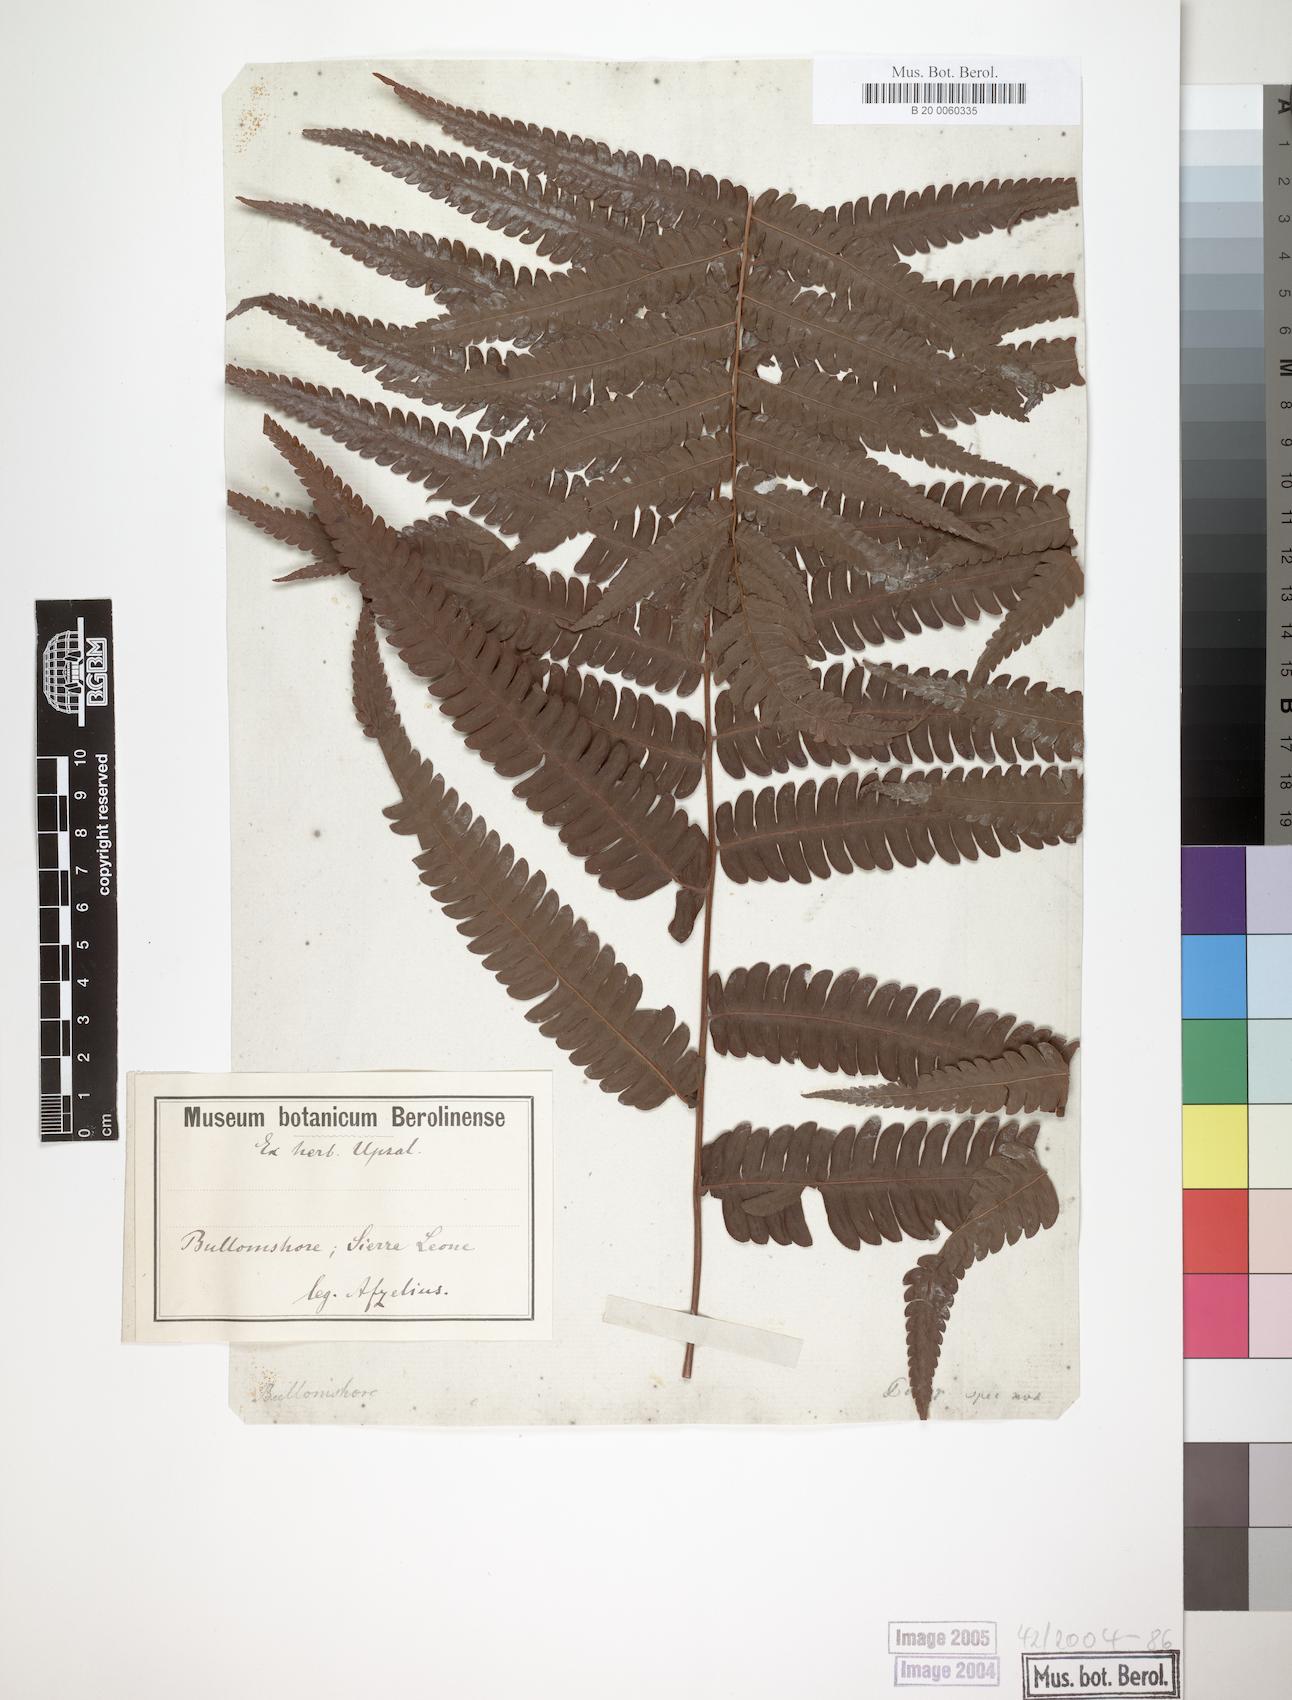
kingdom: Plantae
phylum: Tracheophyta
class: Polypodiopsida
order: Polypodiales
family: Thelypteridaceae
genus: Cyclosorus
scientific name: Cyclosorus interruptus
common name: Neke fern
